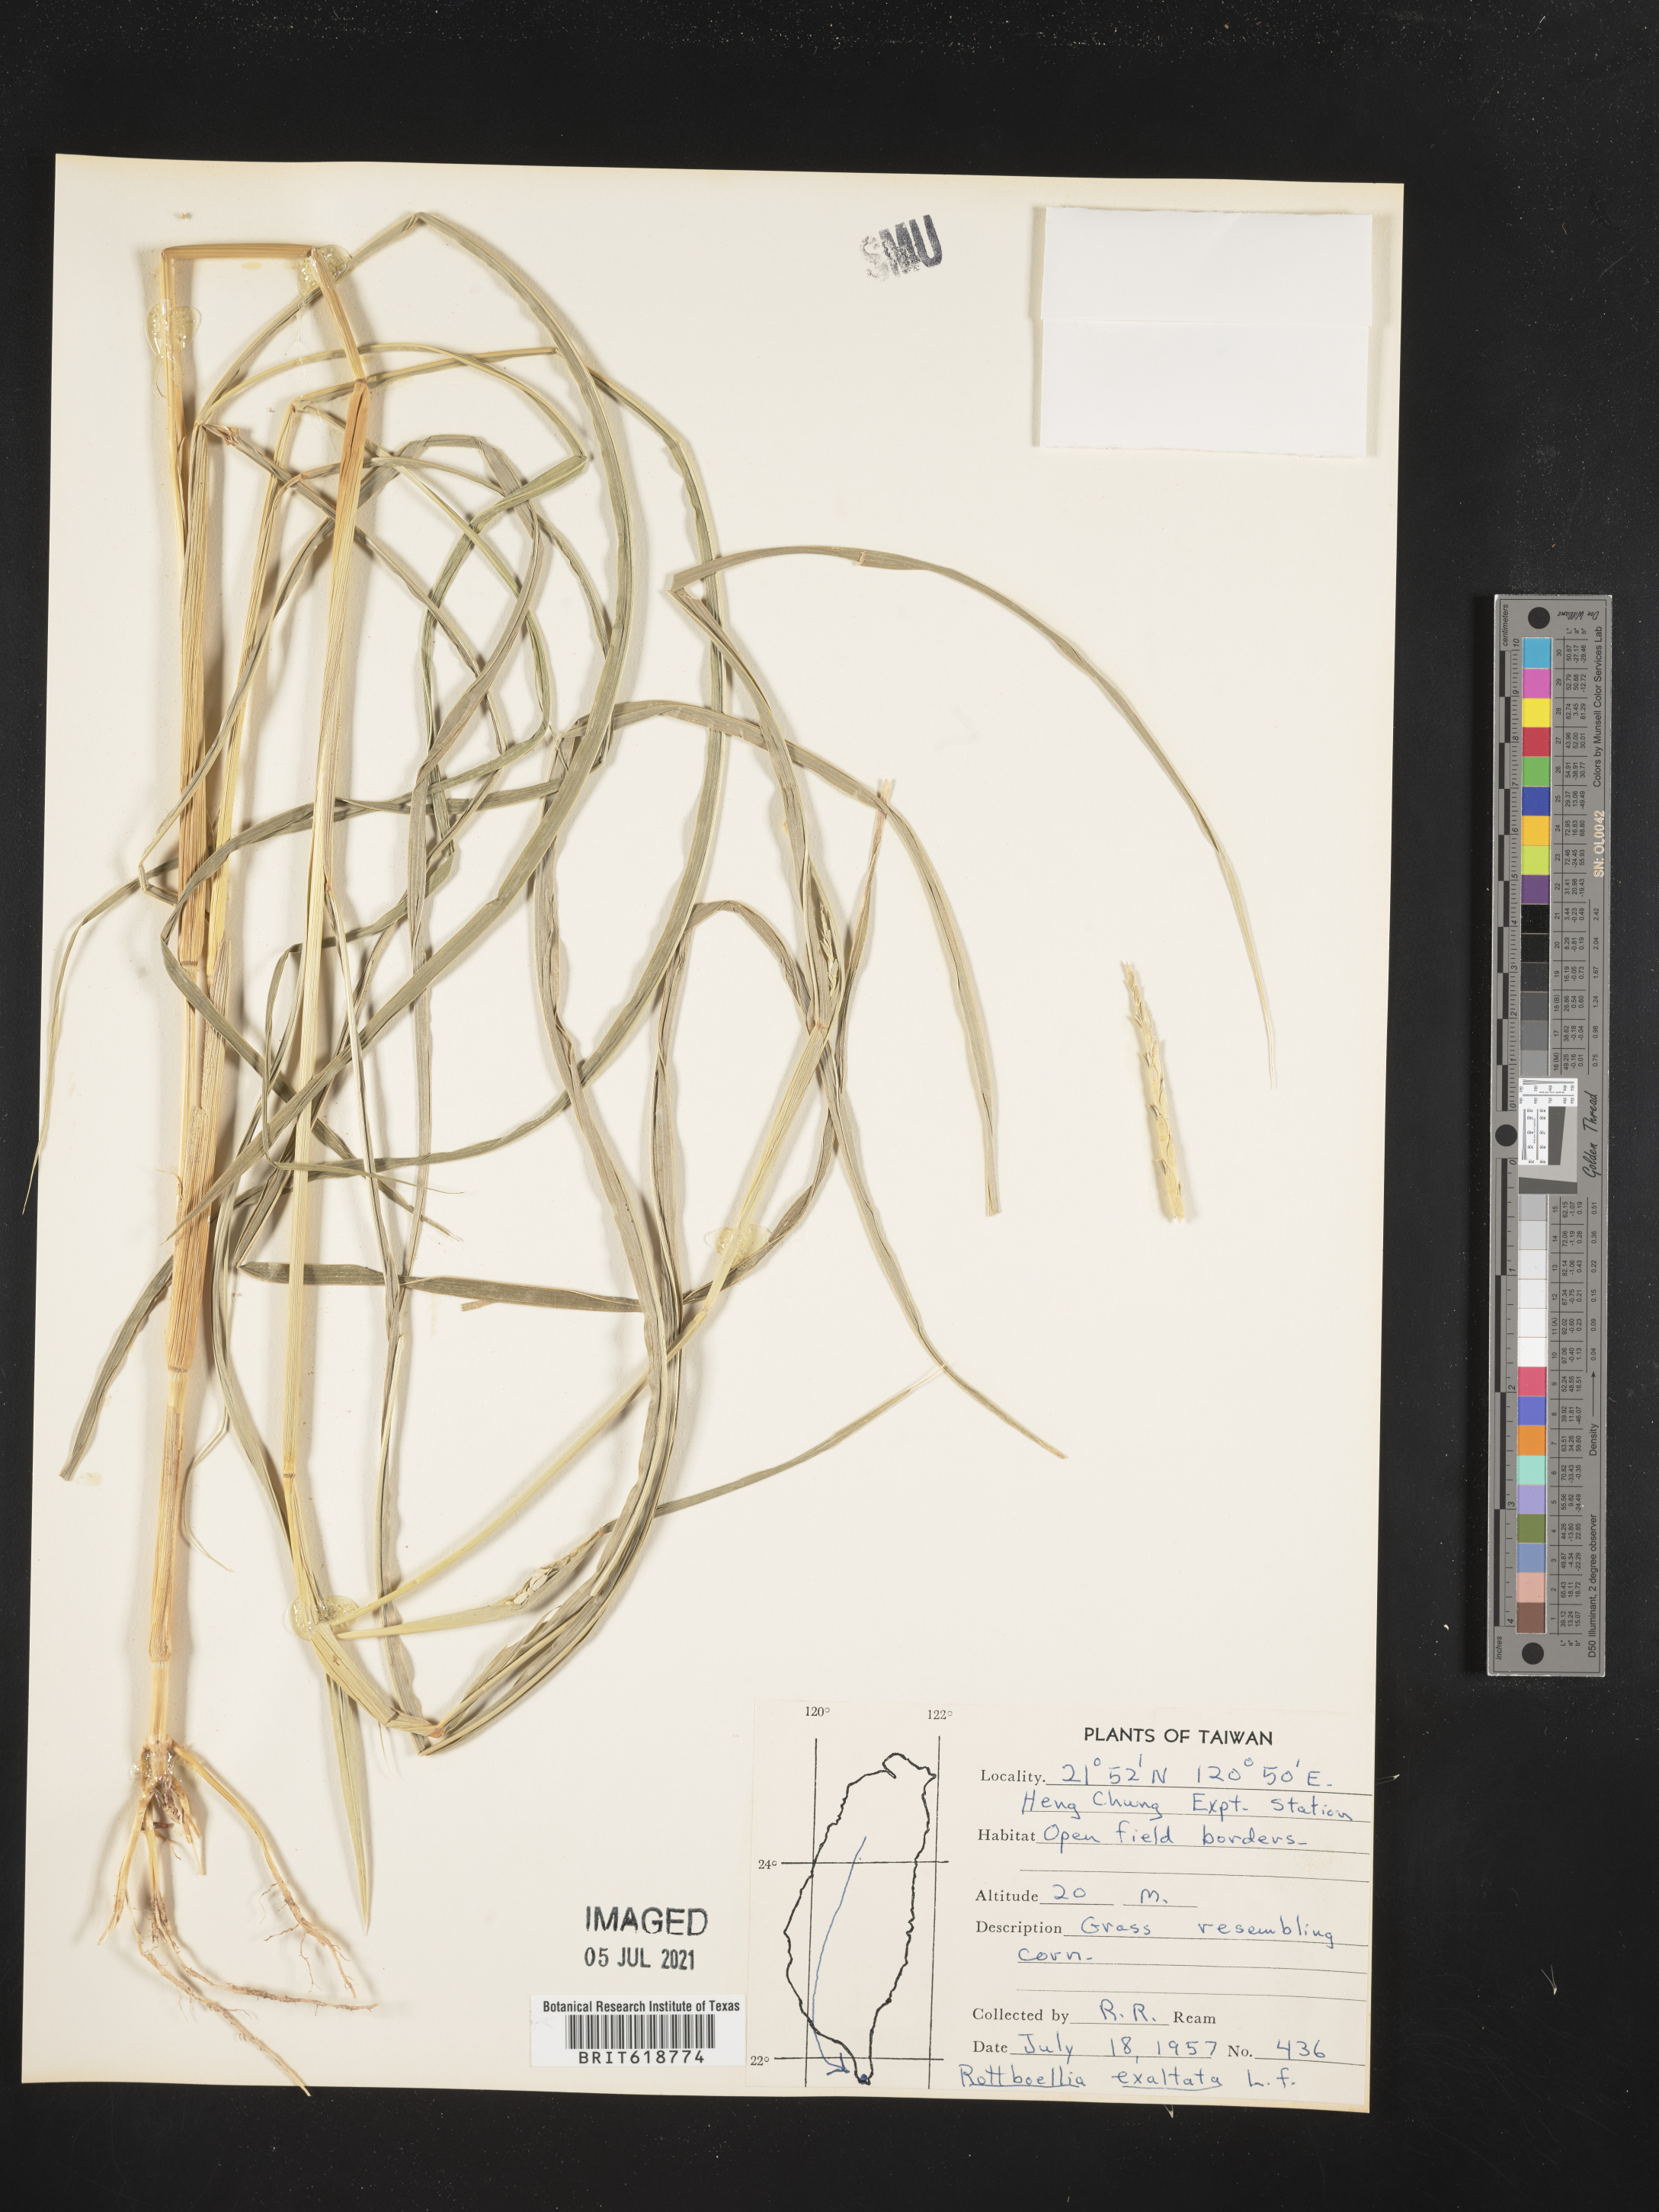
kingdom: Plantae
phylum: Tracheophyta
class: Liliopsida
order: Poales
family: Poaceae
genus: Rottboellia
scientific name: Rottboellia cochinchinensis
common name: Itchgrass
